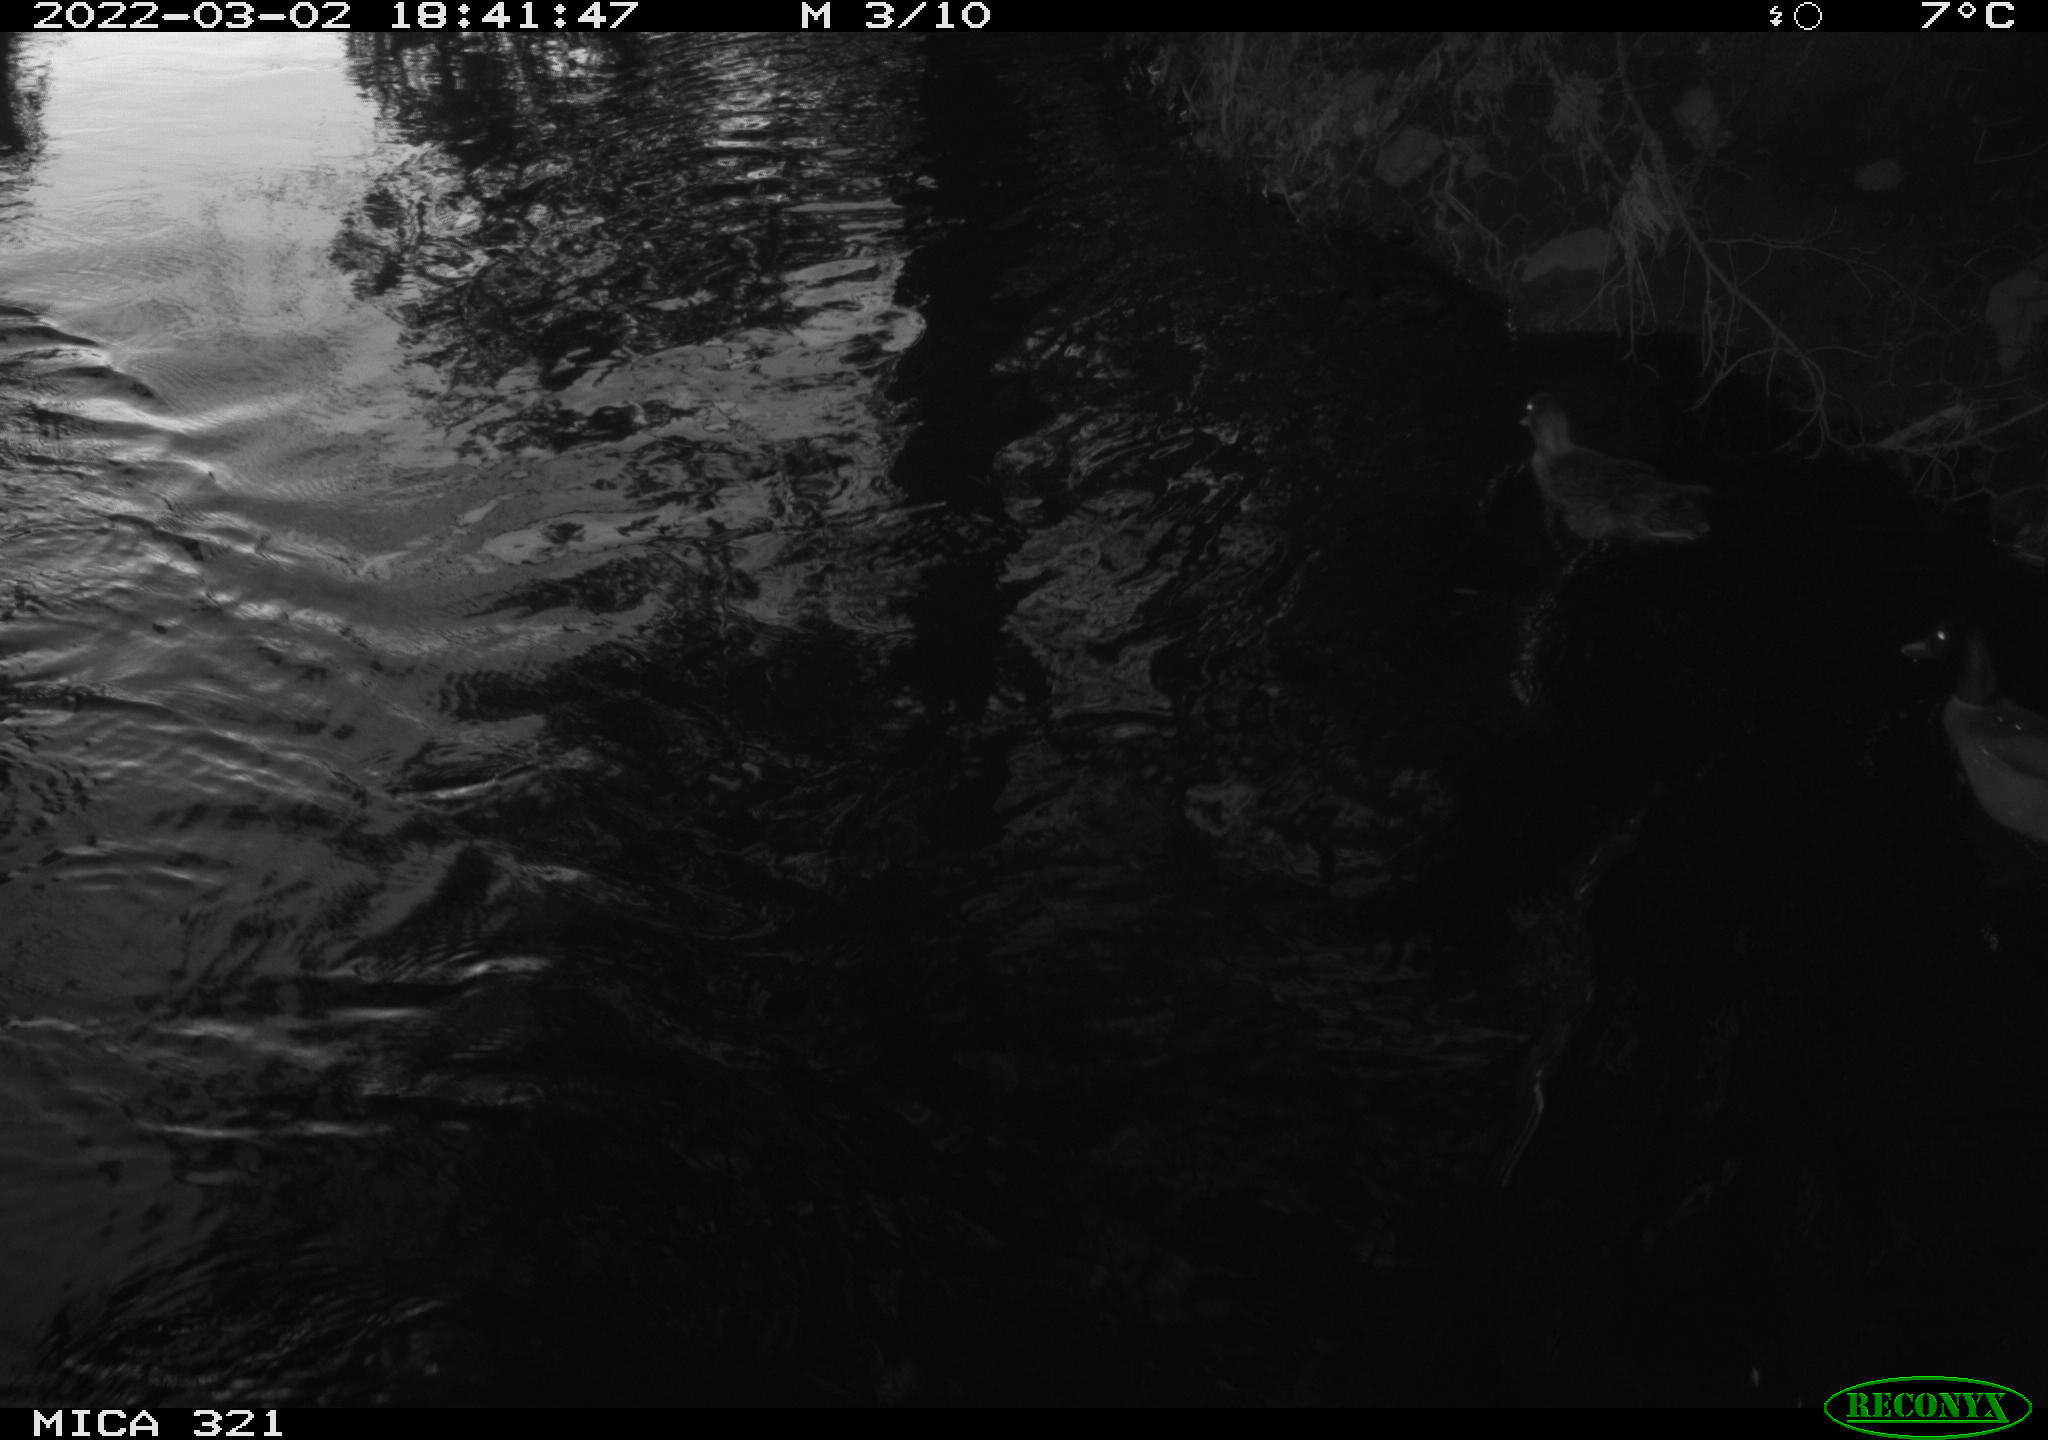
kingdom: Animalia
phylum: Chordata
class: Aves
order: Anseriformes
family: Anatidae
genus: Anas
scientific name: Anas platyrhynchos
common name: Mallard
